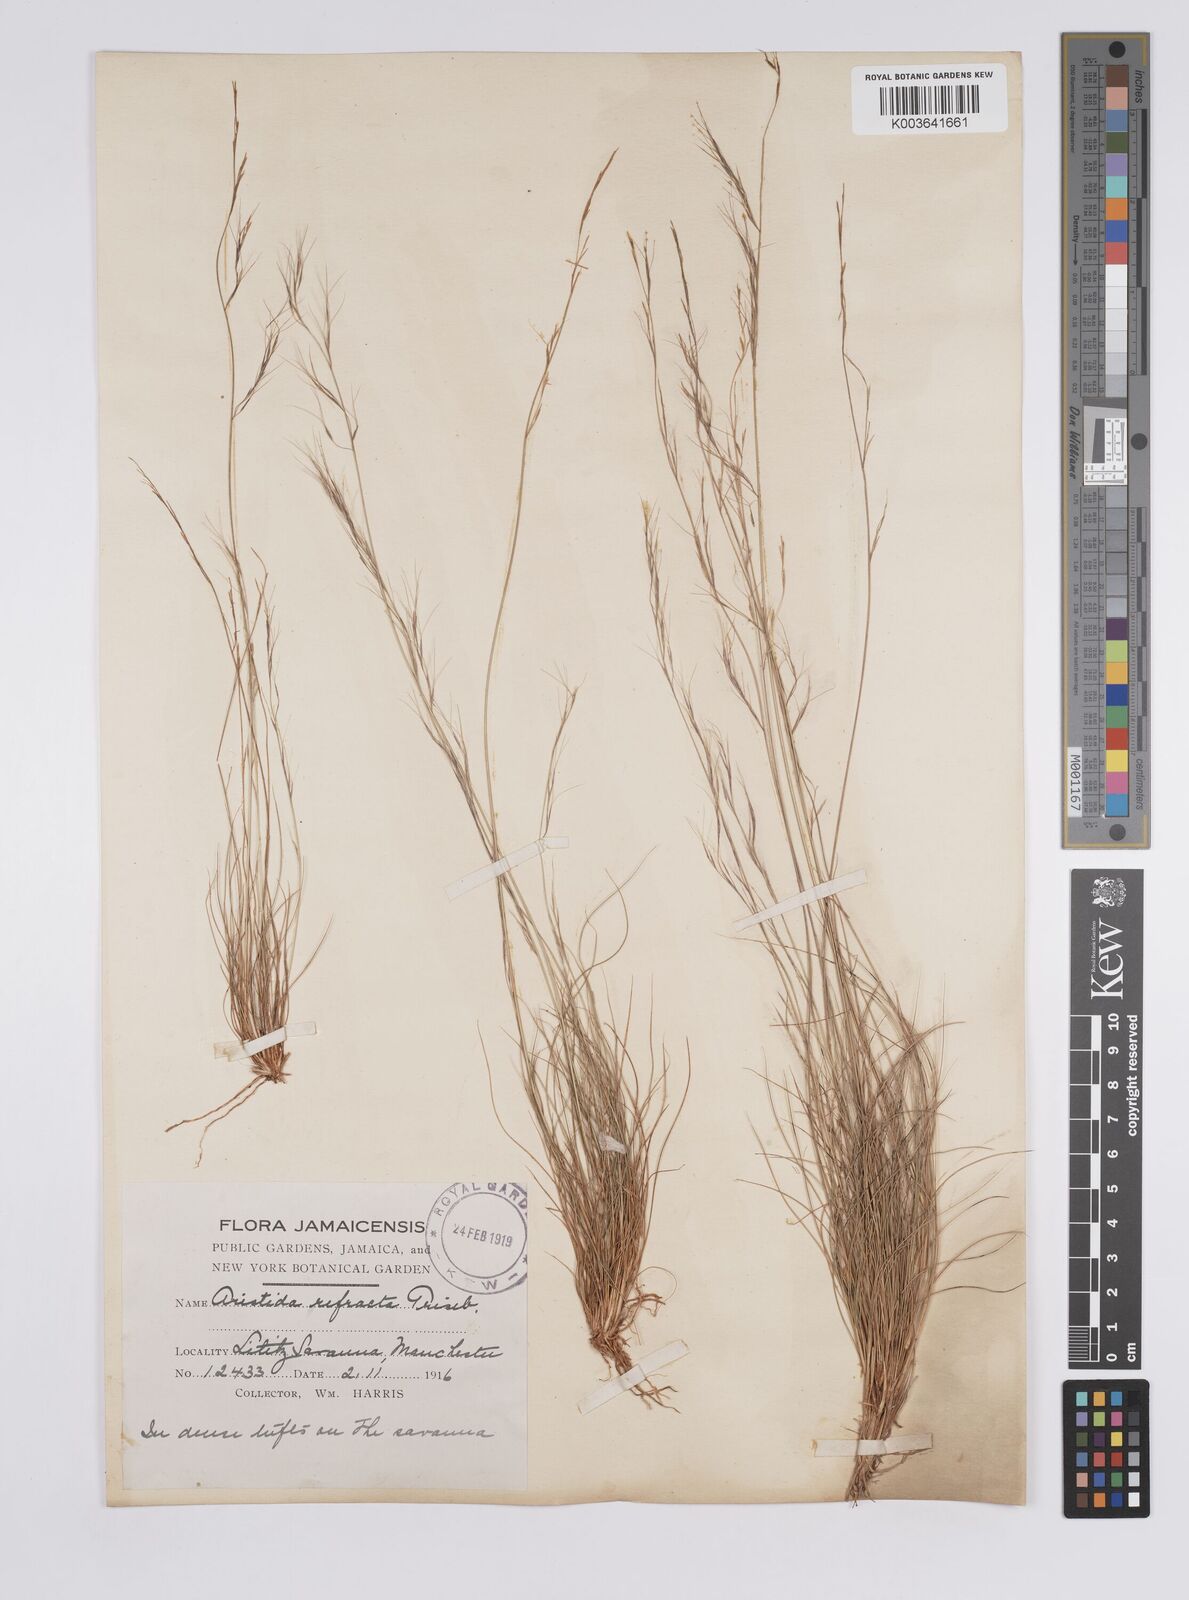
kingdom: Plantae
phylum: Tracheophyta
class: Liliopsida
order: Poales
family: Poaceae
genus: Aristida
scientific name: Aristida refracta
